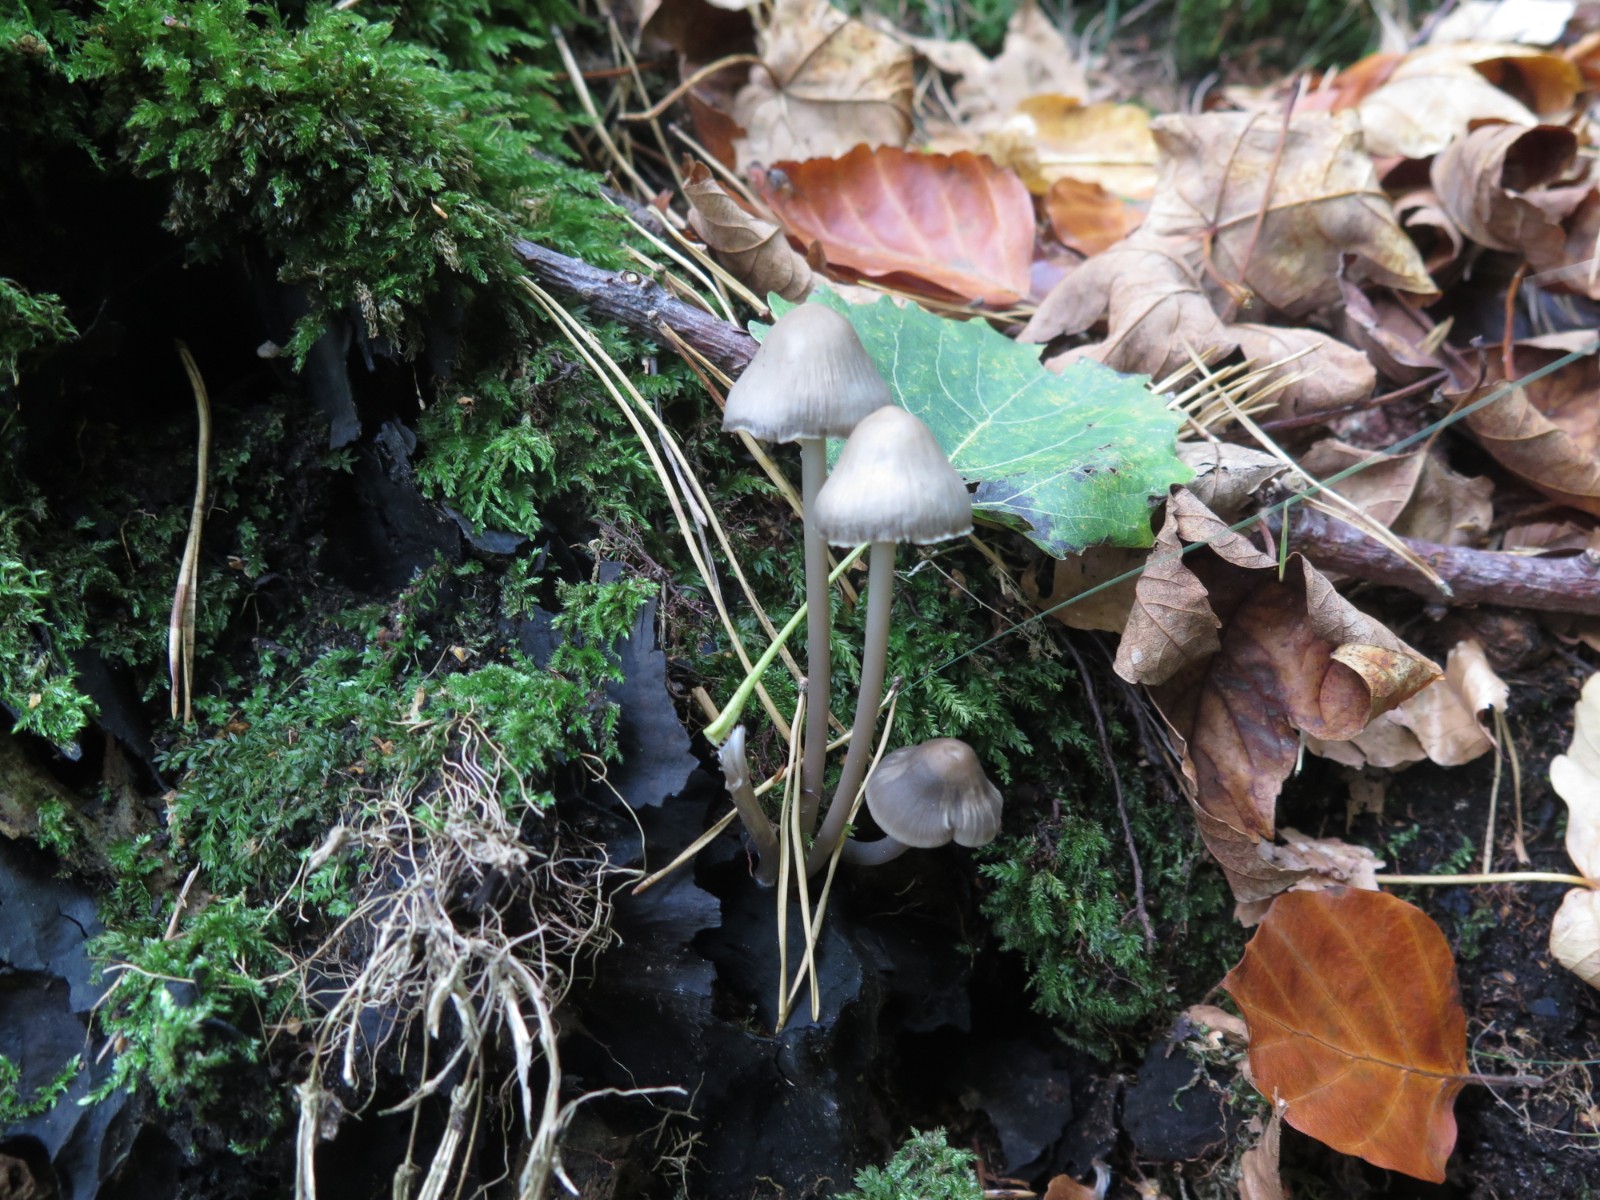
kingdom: Fungi
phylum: Basidiomycota
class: Agaricomycetes
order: Agaricales
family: Mycenaceae
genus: Mycena
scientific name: Mycena vitilis
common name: blankstokket huesvamp
